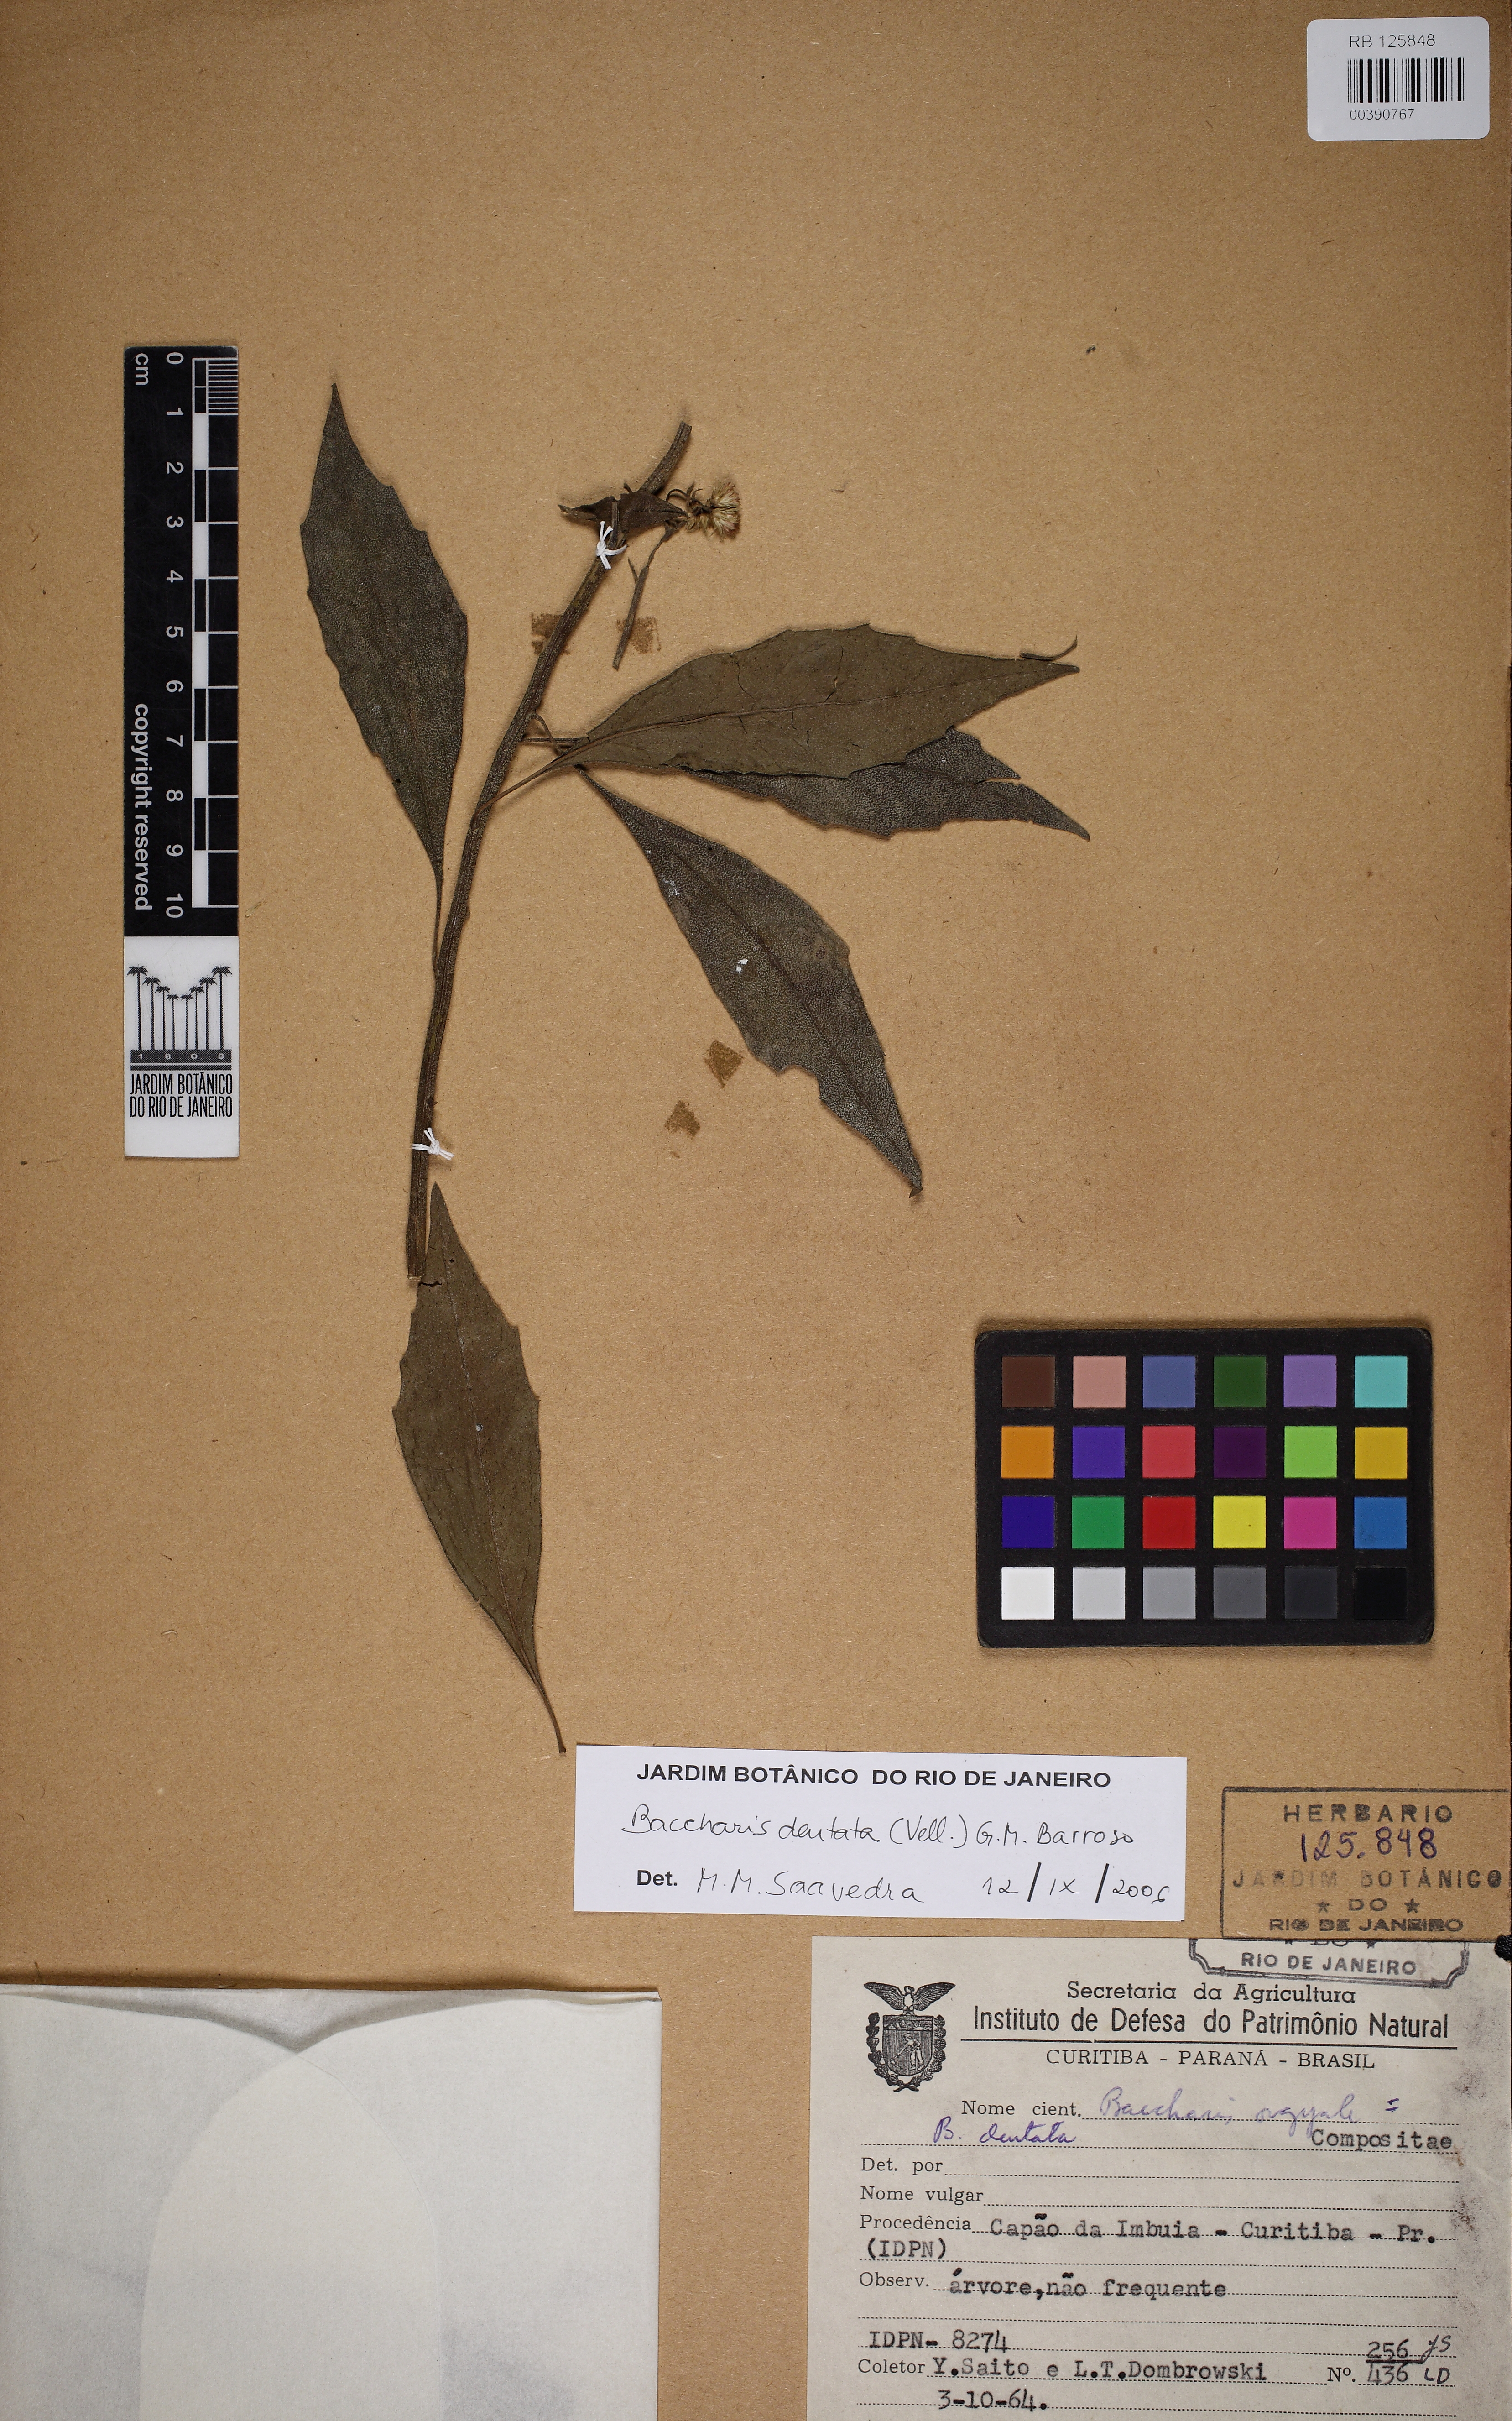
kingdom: Plantae
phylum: Tracheophyta
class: Magnoliopsida
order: Asterales
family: Asteraceae
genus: Baccharis
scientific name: Baccharis dentata
